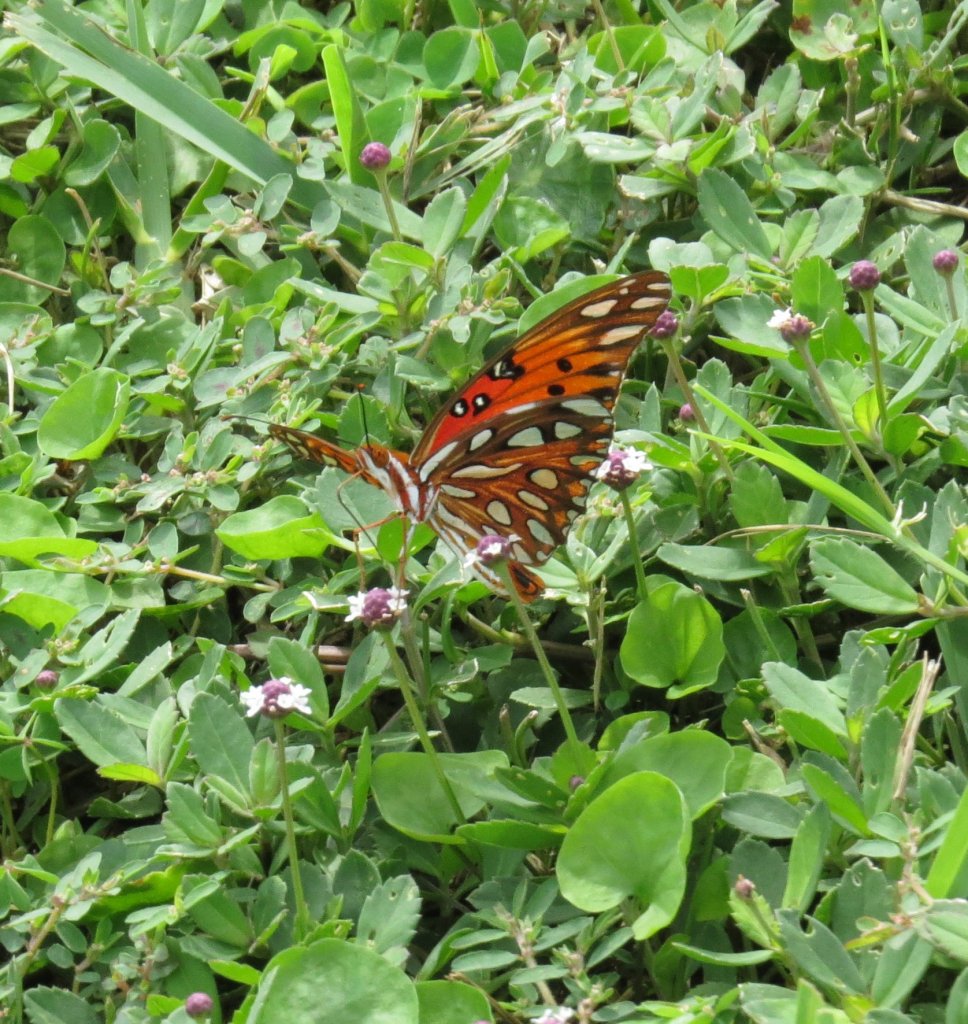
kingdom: Animalia
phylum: Arthropoda
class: Insecta
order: Lepidoptera
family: Nymphalidae
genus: Dione
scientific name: Dione vanillae
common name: Gulf Fritillary
